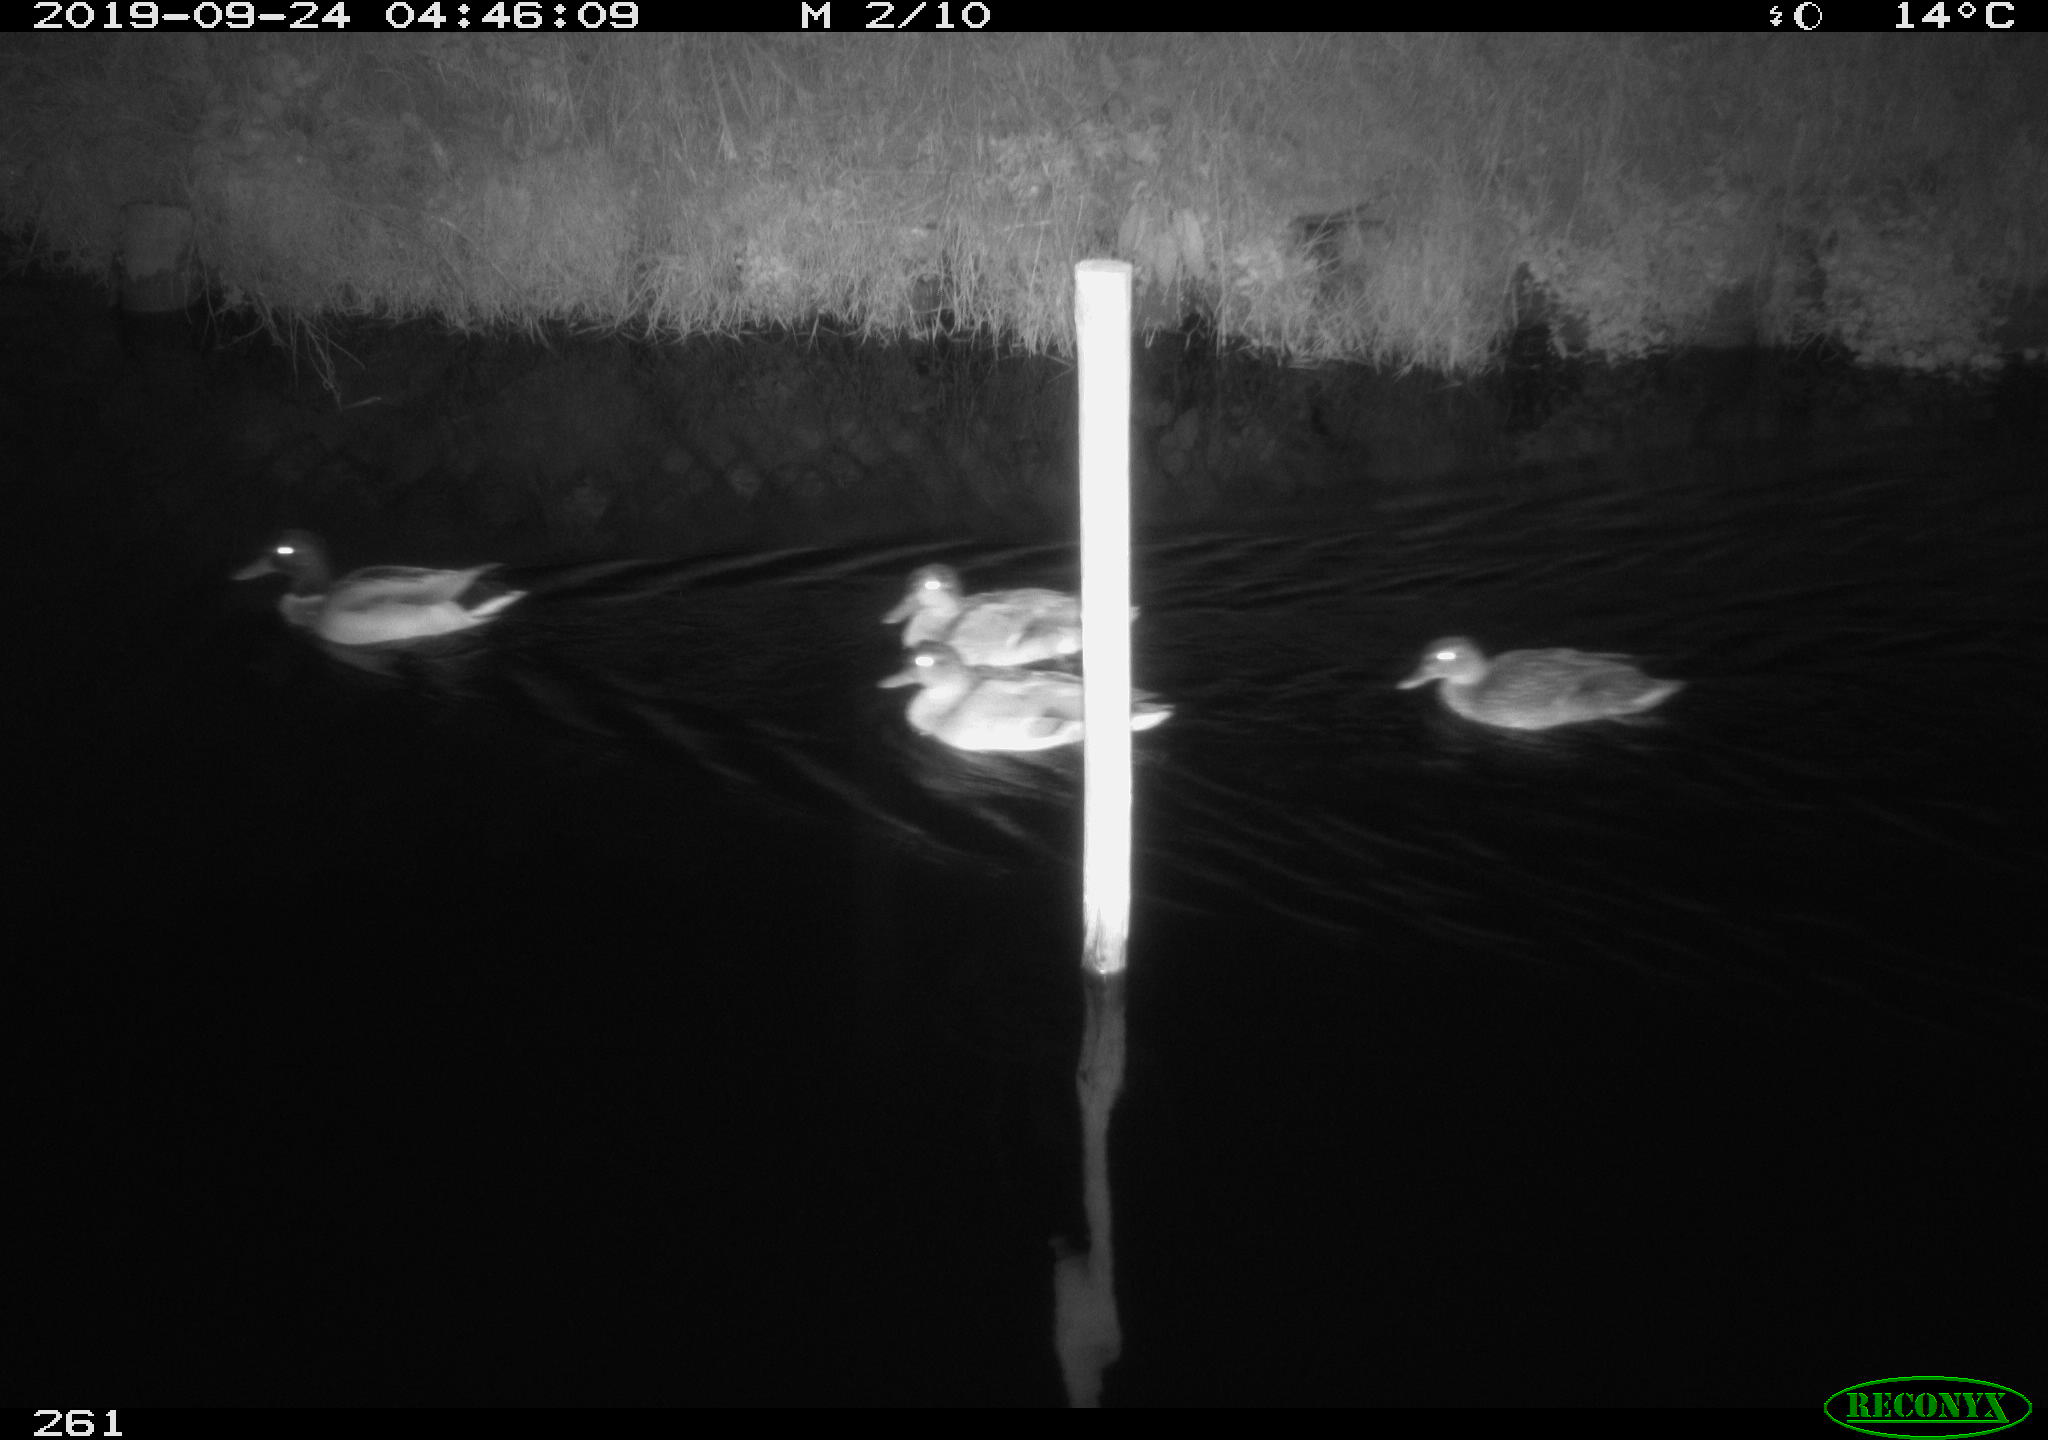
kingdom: Animalia
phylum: Chordata
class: Aves
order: Anseriformes
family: Anatidae
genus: Anas
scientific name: Anas platyrhynchos
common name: Mallard
